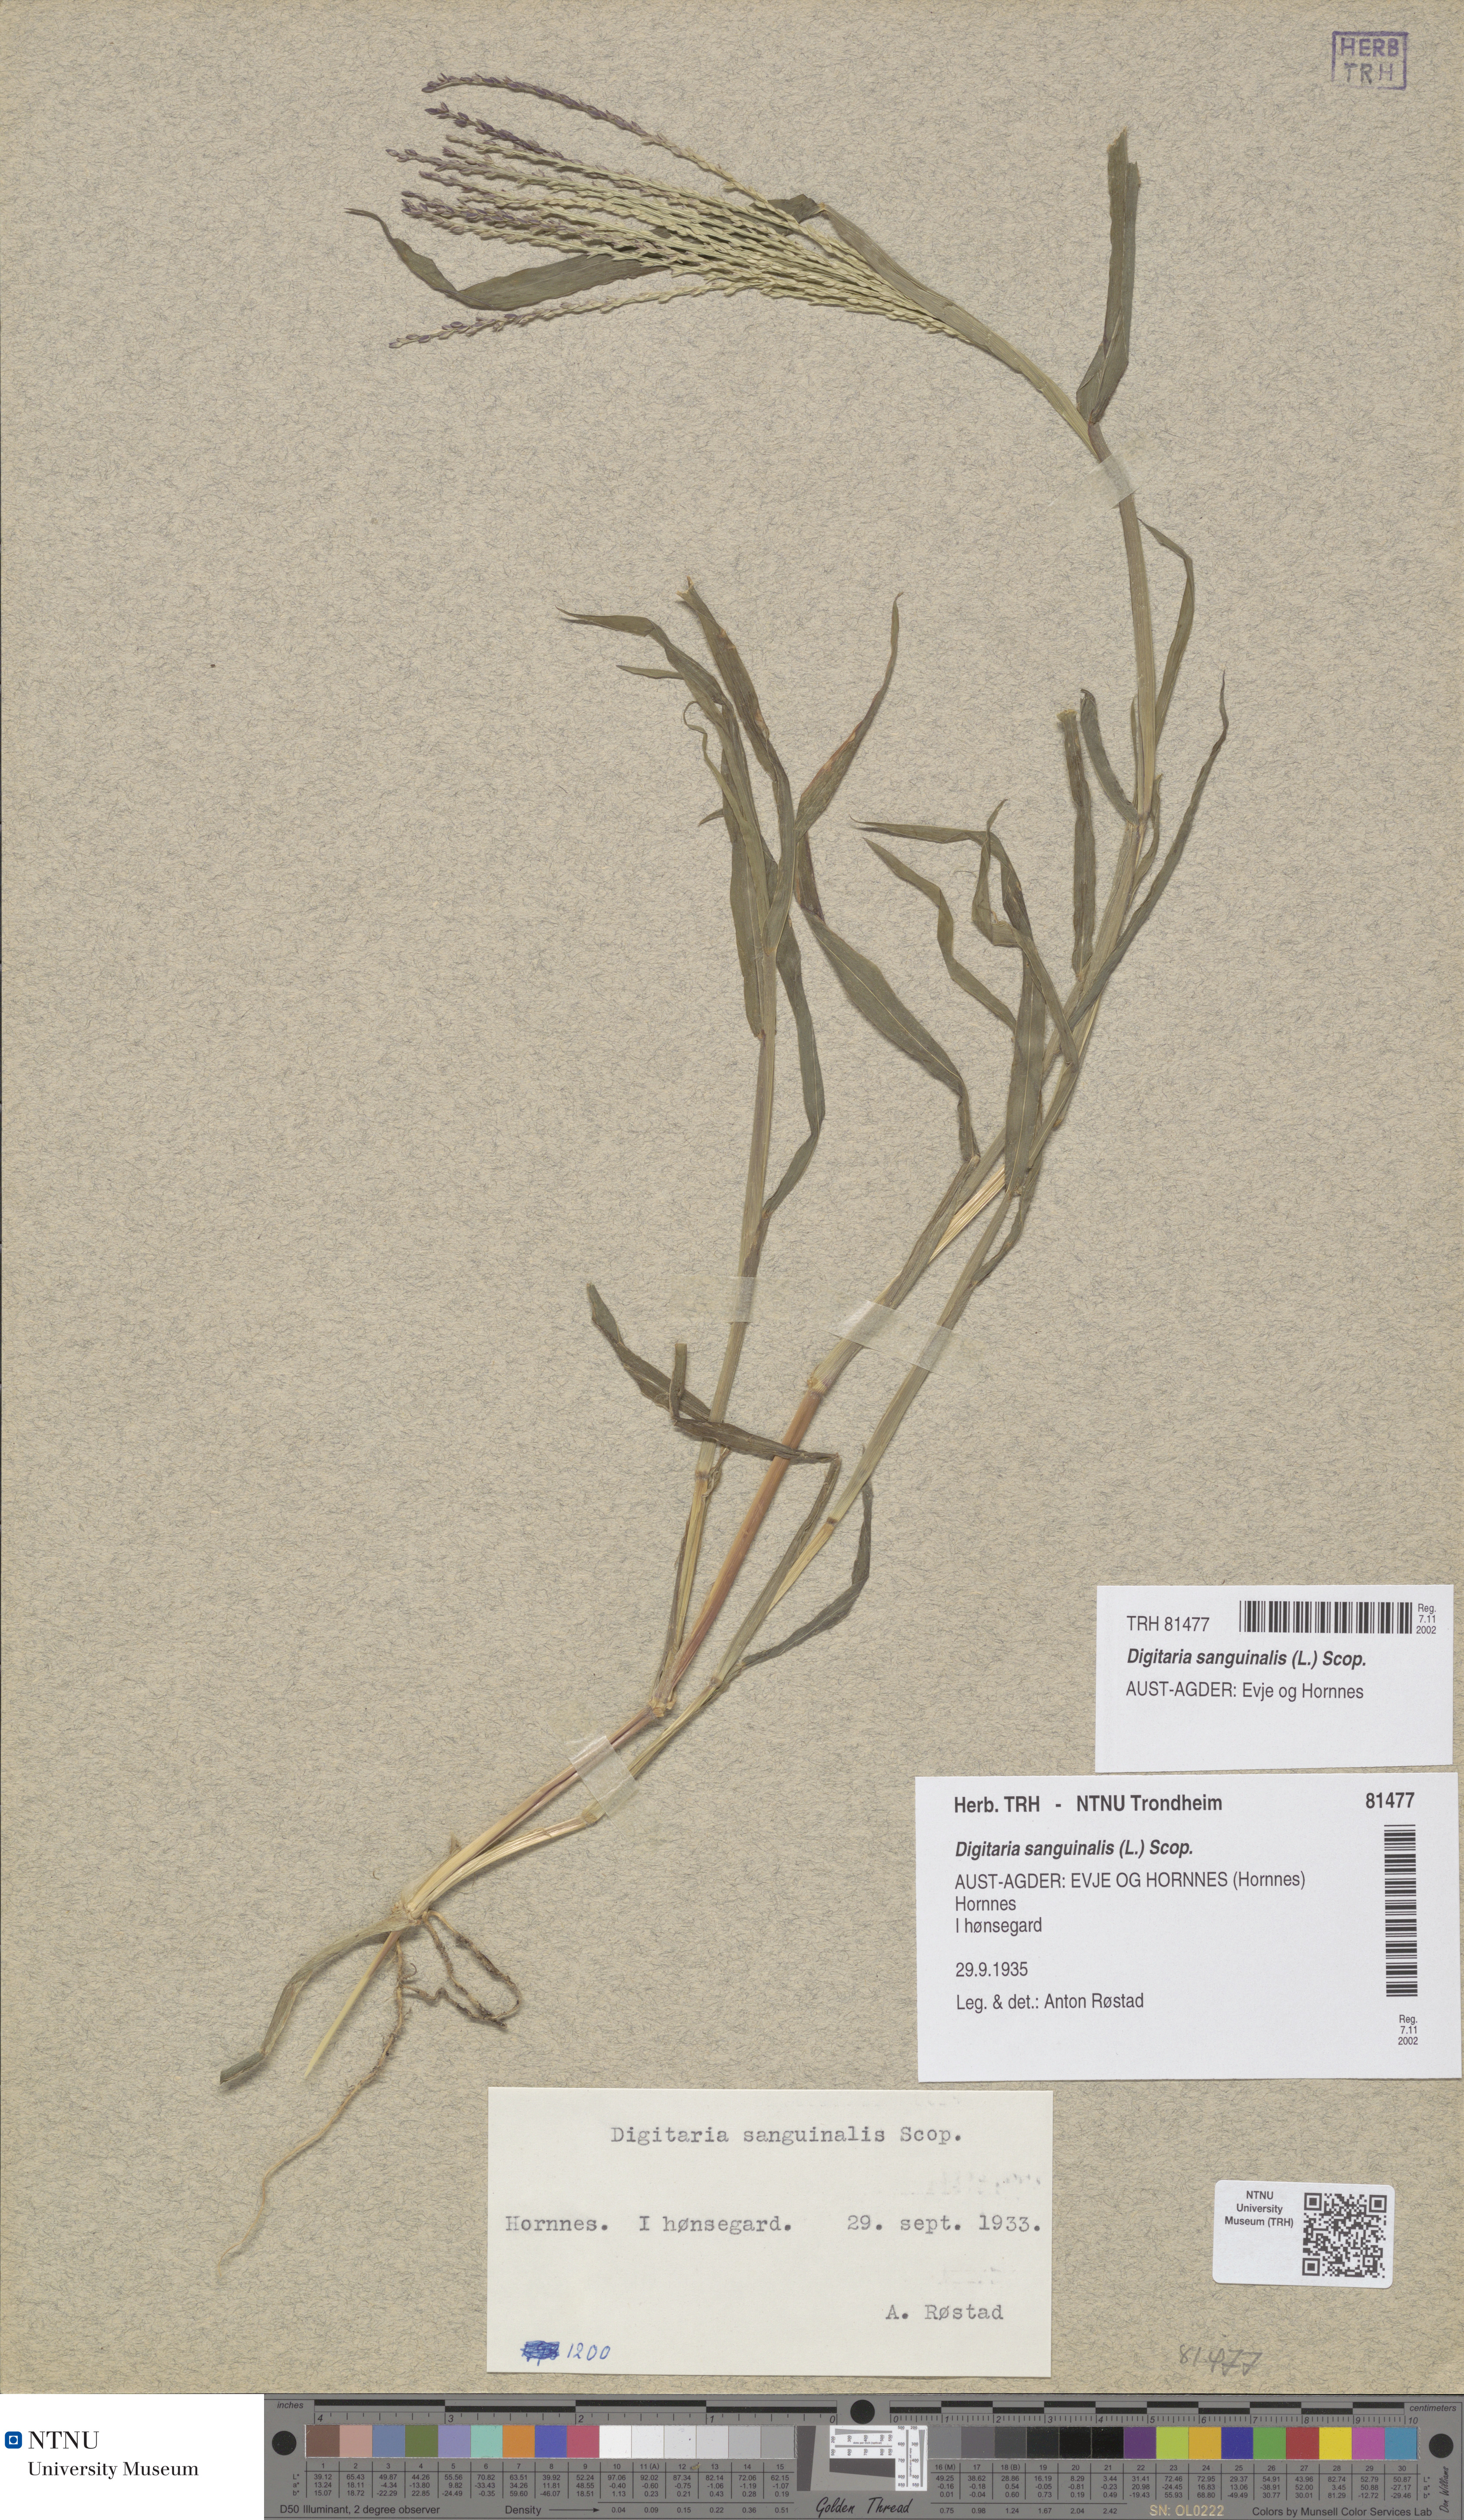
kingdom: Plantae
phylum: Tracheophyta
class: Liliopsida
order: Poales
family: Poaceae
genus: Digitaria
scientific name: Digitaria sanguinalis
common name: Hairy crabgrass
